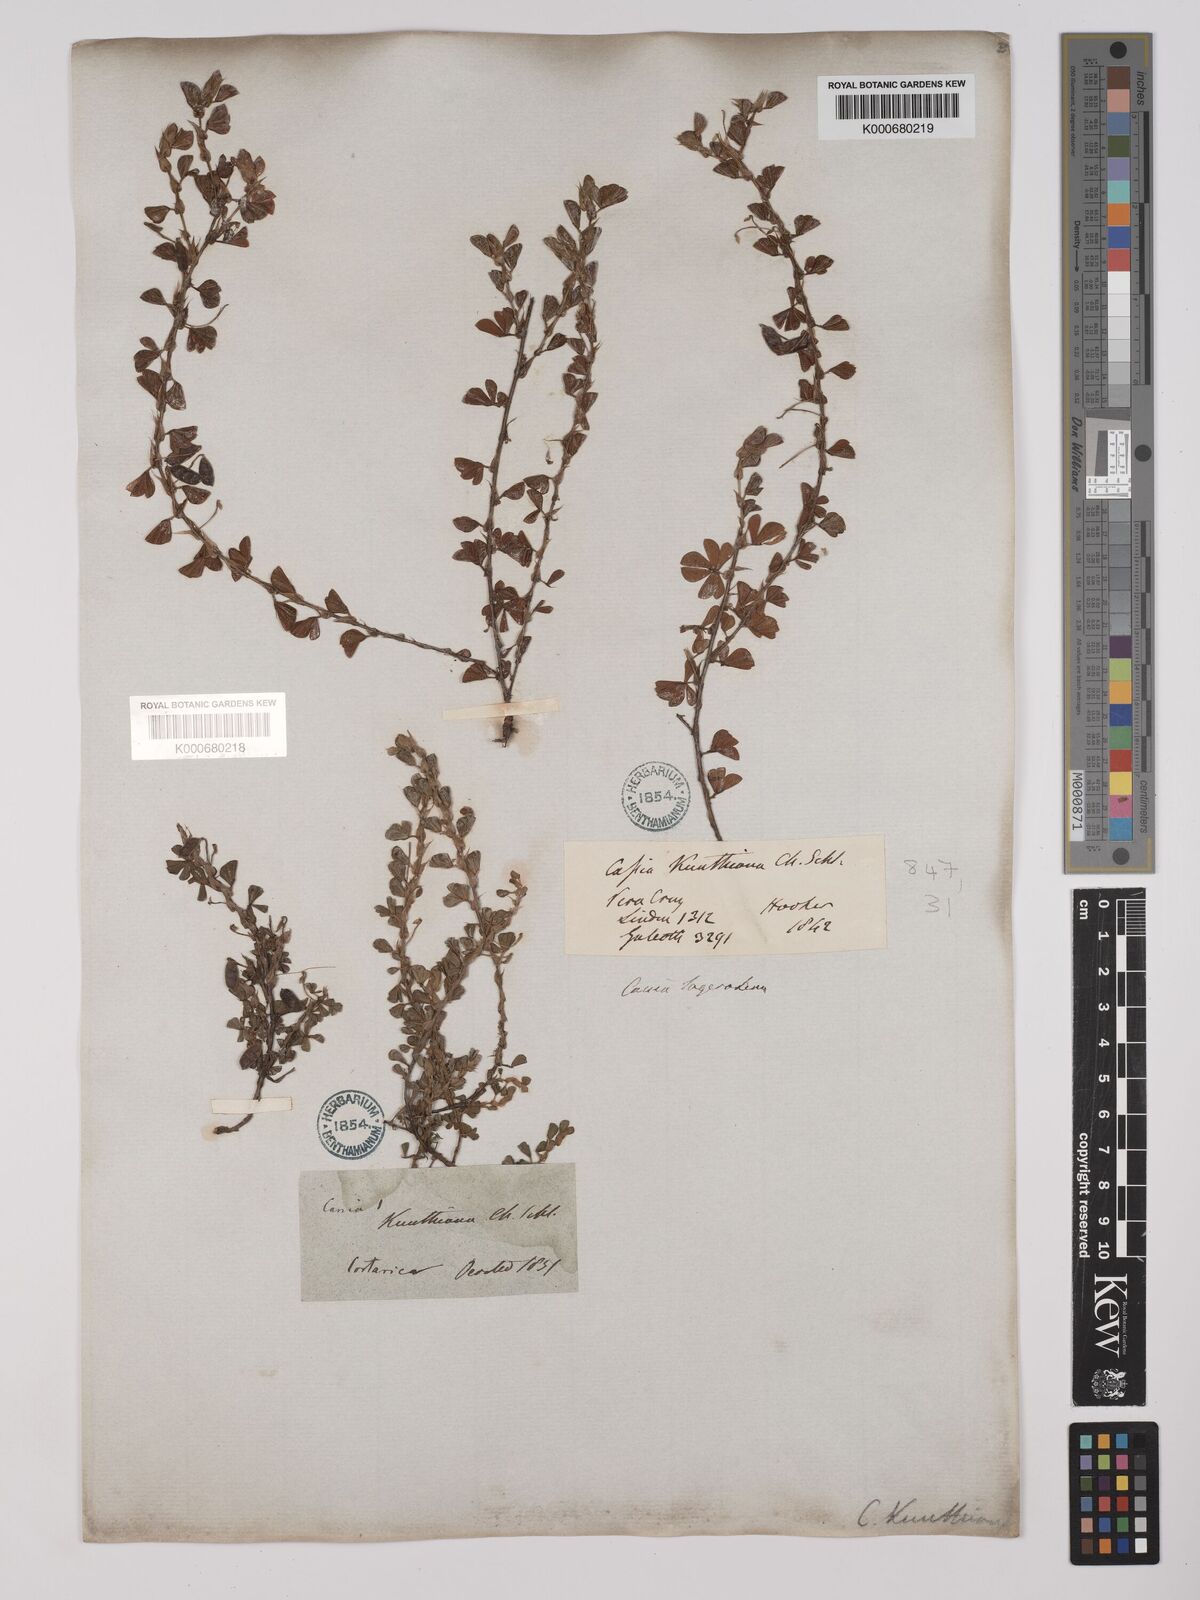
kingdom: Plantae
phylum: Tracheophyta
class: Magnoliopsida
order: Fabales
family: Fabaceae
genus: Chamaecrista
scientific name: Chamaecrista kunthiana
